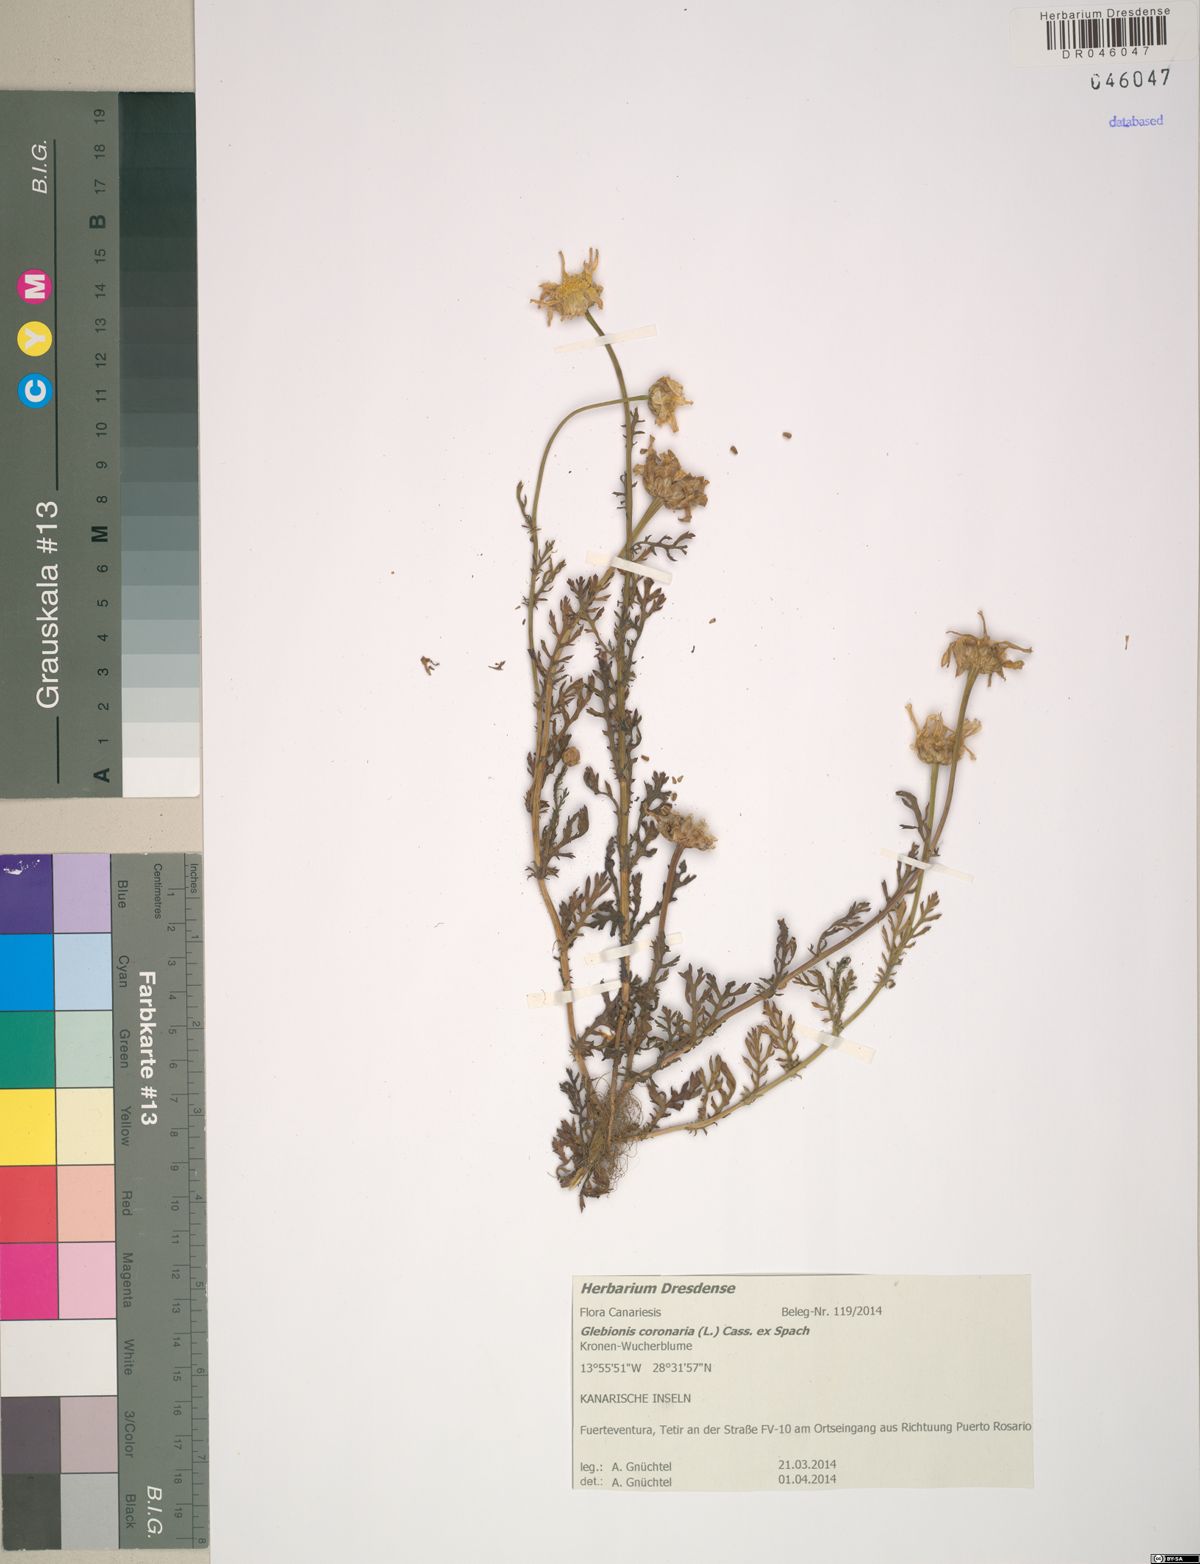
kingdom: Plantae
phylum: Tracheophyta
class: Magnoliopsida
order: Asterales
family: Asteraceae
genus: Glebionis
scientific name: Glebionis coronaria
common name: Crowndaisy
